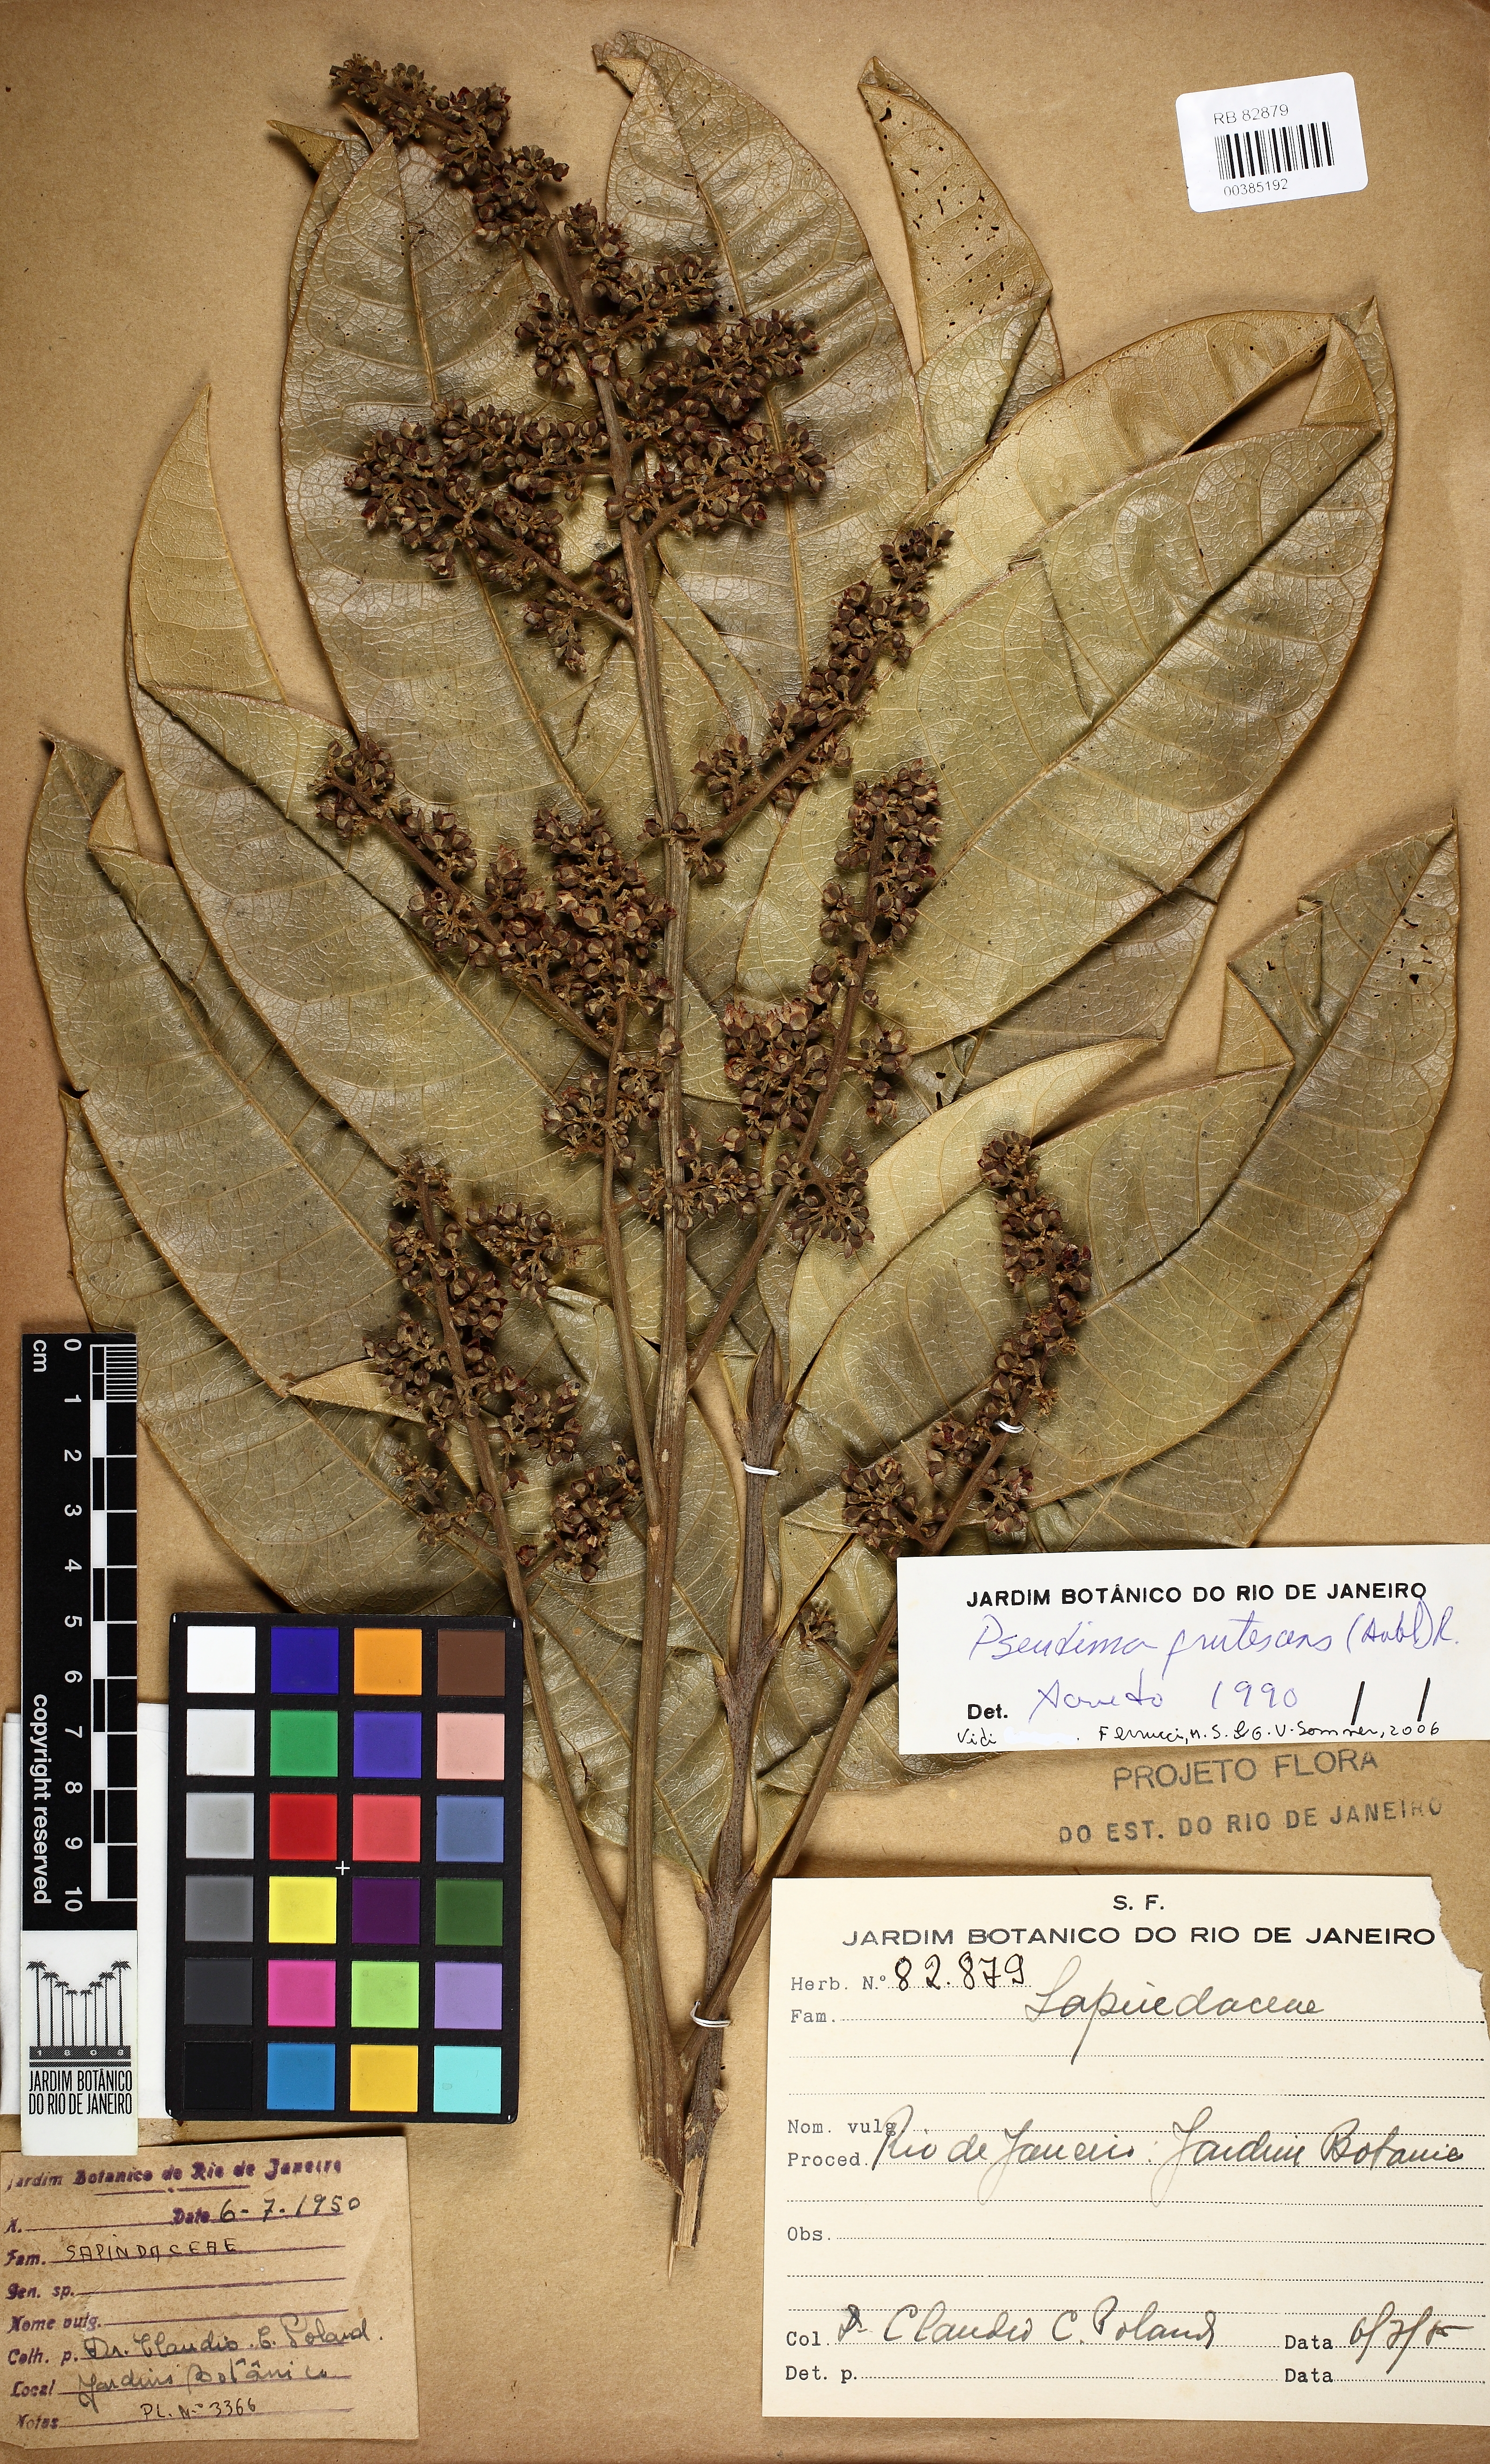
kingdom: Plantae
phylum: Tracheophyta
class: Magnoliopsida
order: Sapindales
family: Sapindaceae
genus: Pseudima
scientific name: Pseudima frutescens
